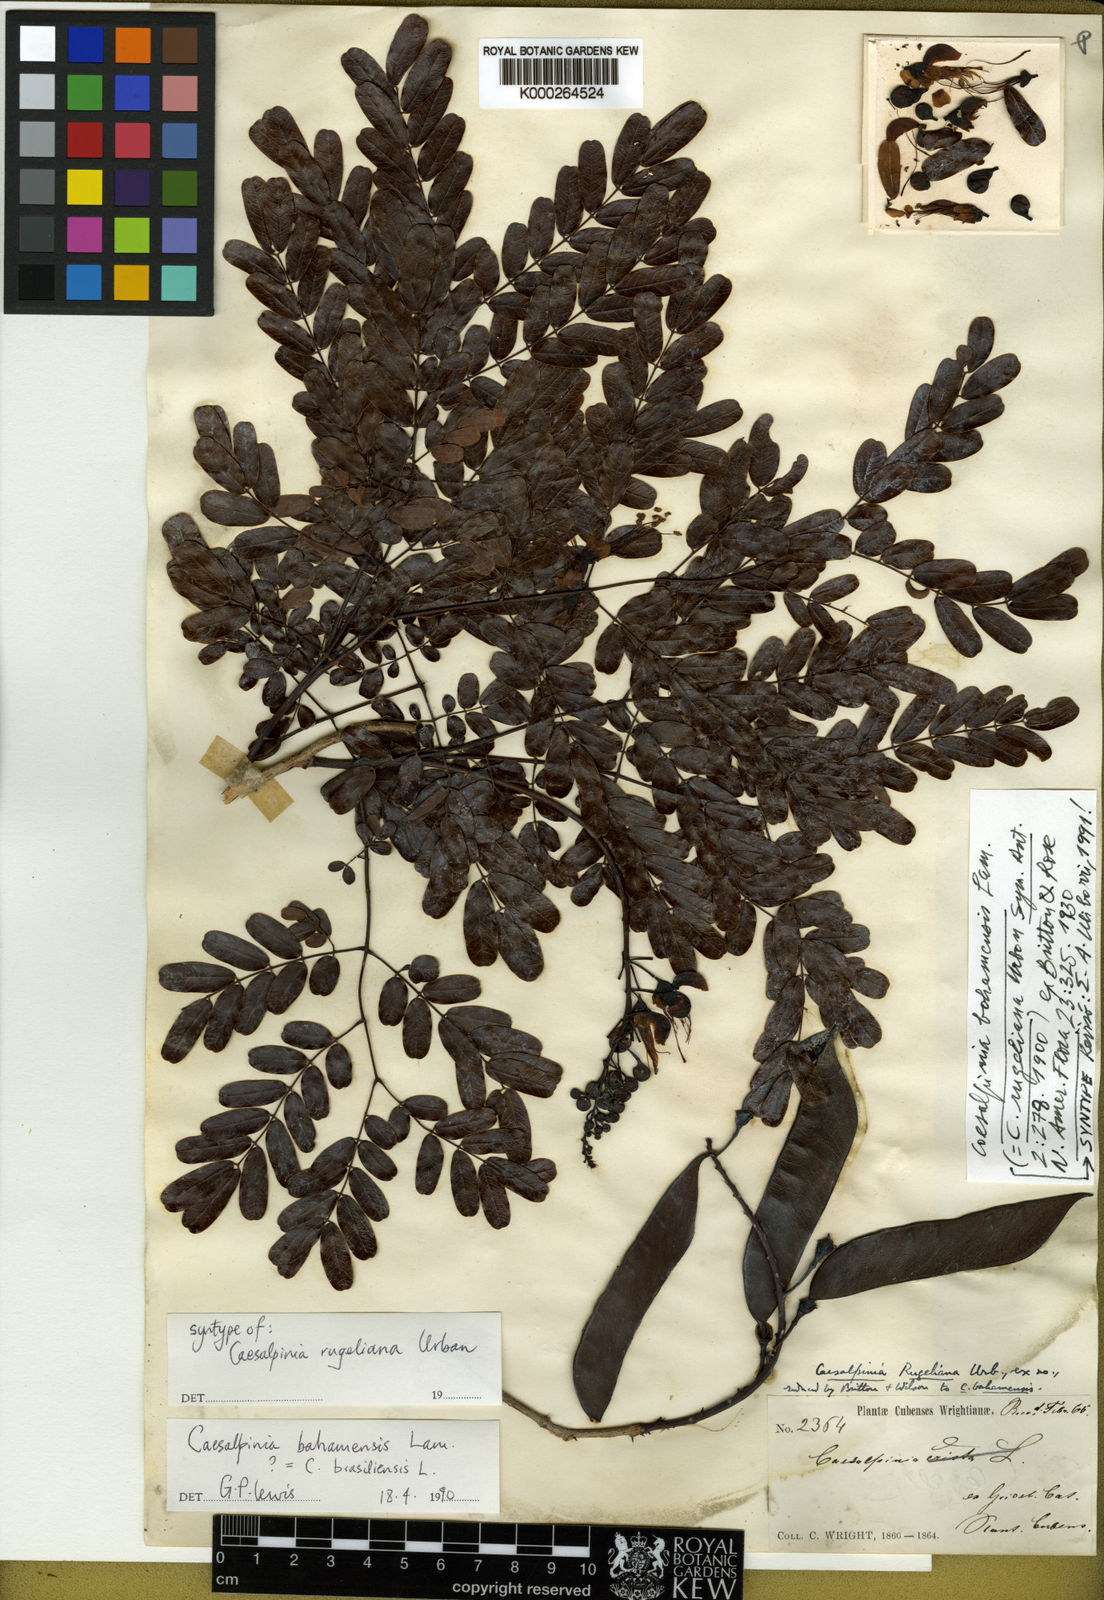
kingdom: Plantae
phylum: Tracheophyta
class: Magnoliopsida
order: Fabales
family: Fabaceae
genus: Caesalpinia
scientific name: Caesalpinia bahamensis
